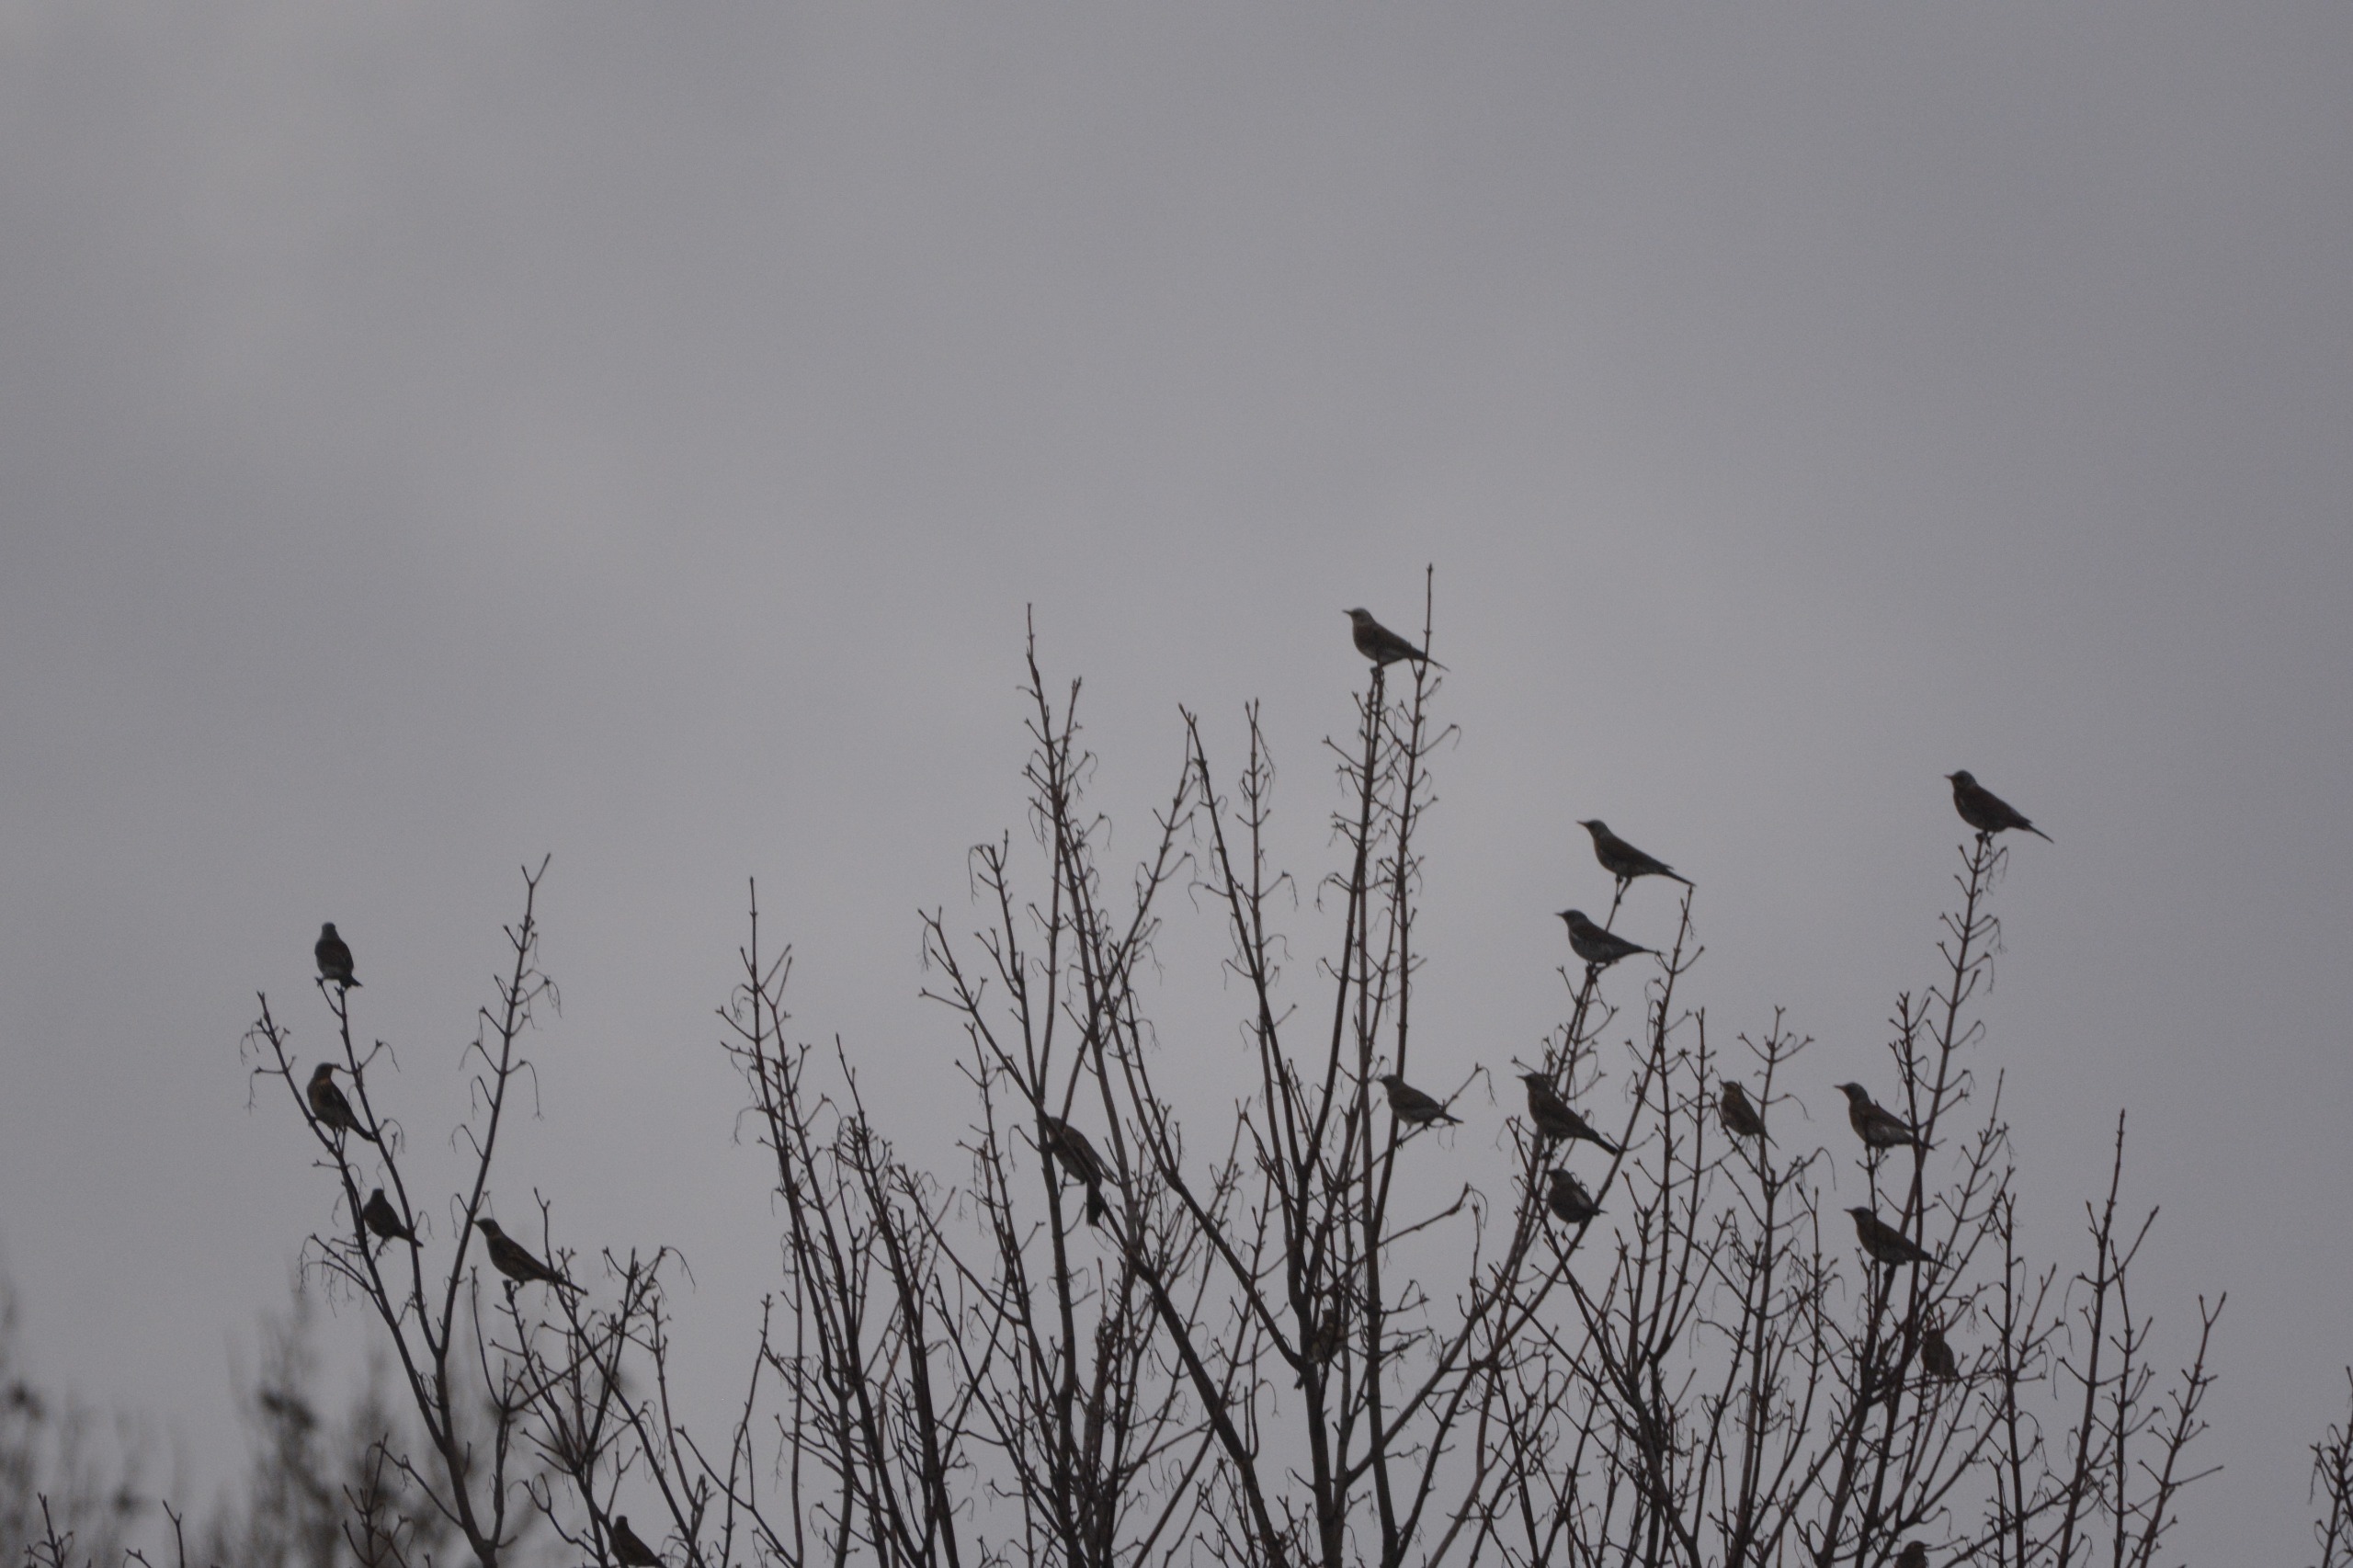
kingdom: Animalia
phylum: Chordata
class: Aves
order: Passeriformes
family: Turdidae
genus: Turdus
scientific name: Turdus pilaris
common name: Sjagger
